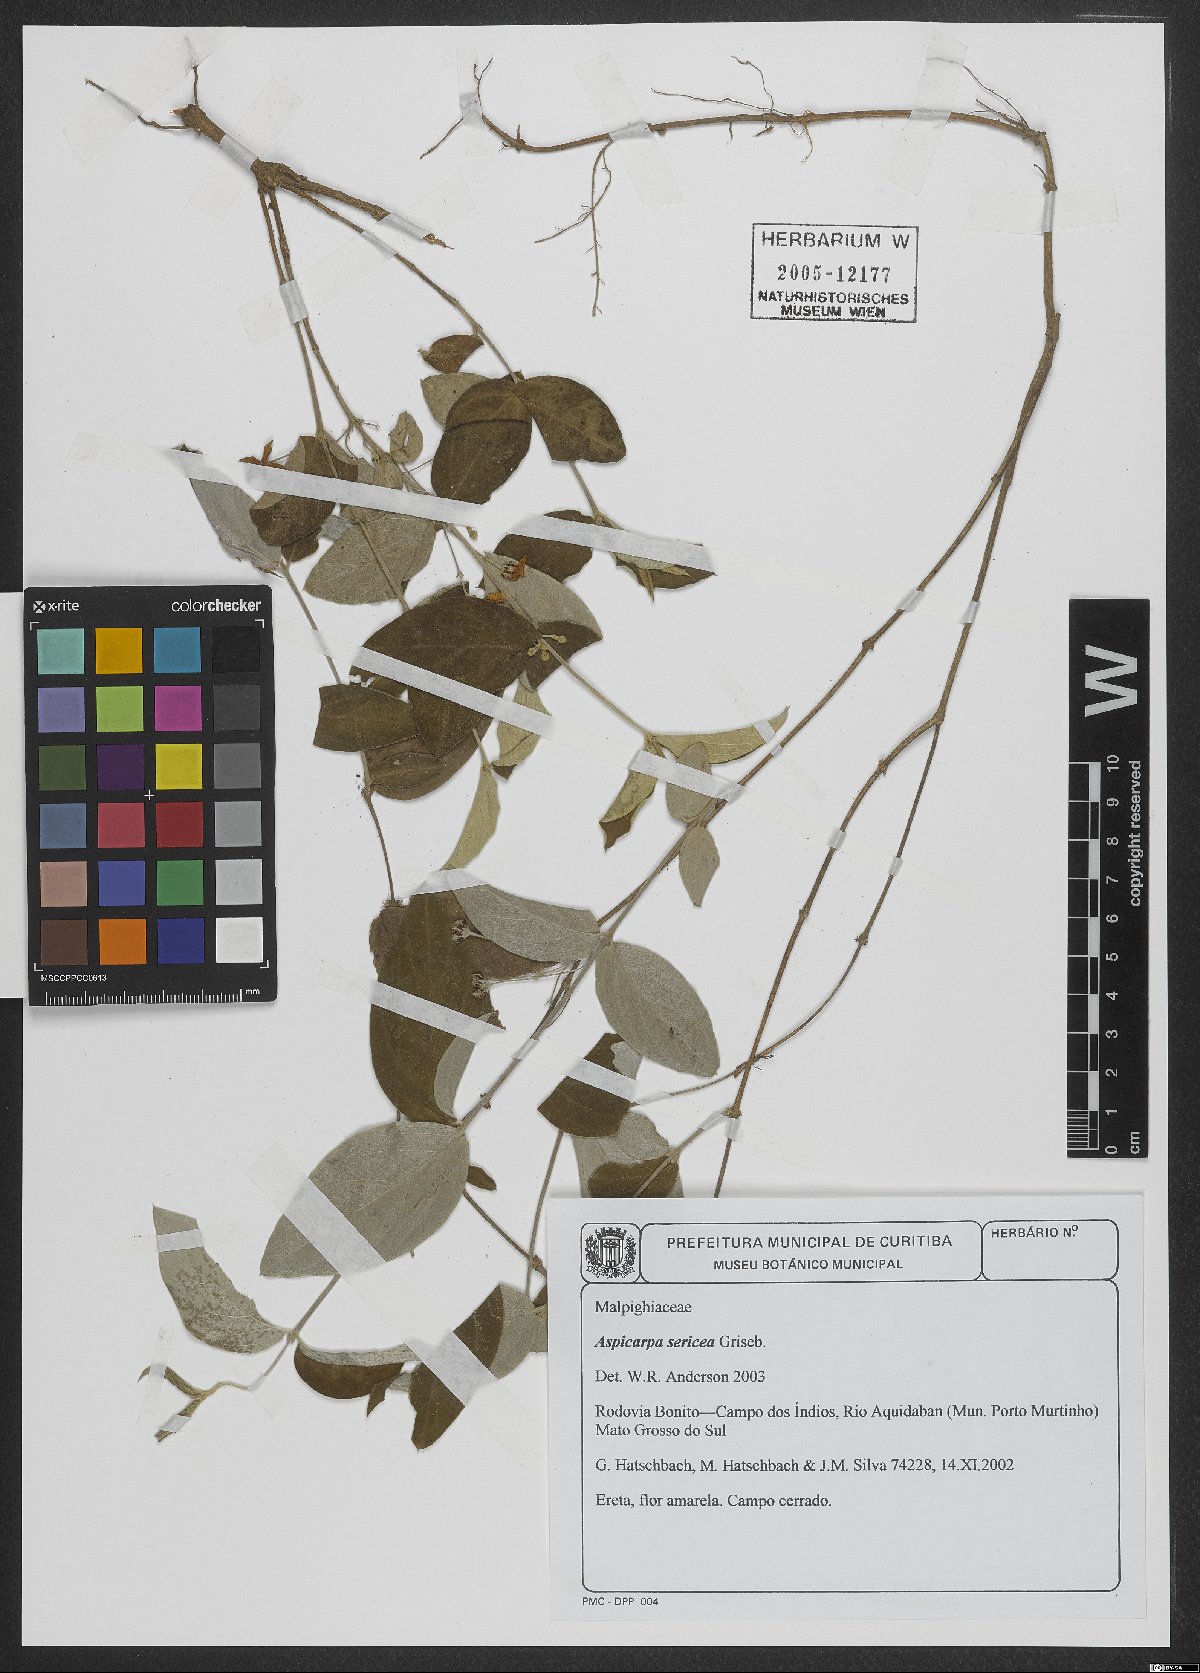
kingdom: Plantae
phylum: Tracheophyta
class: Magnoliopsida
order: Malpighiales
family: Malpighiaceae
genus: Aspicarpa
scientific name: Aspicarpa sericea
